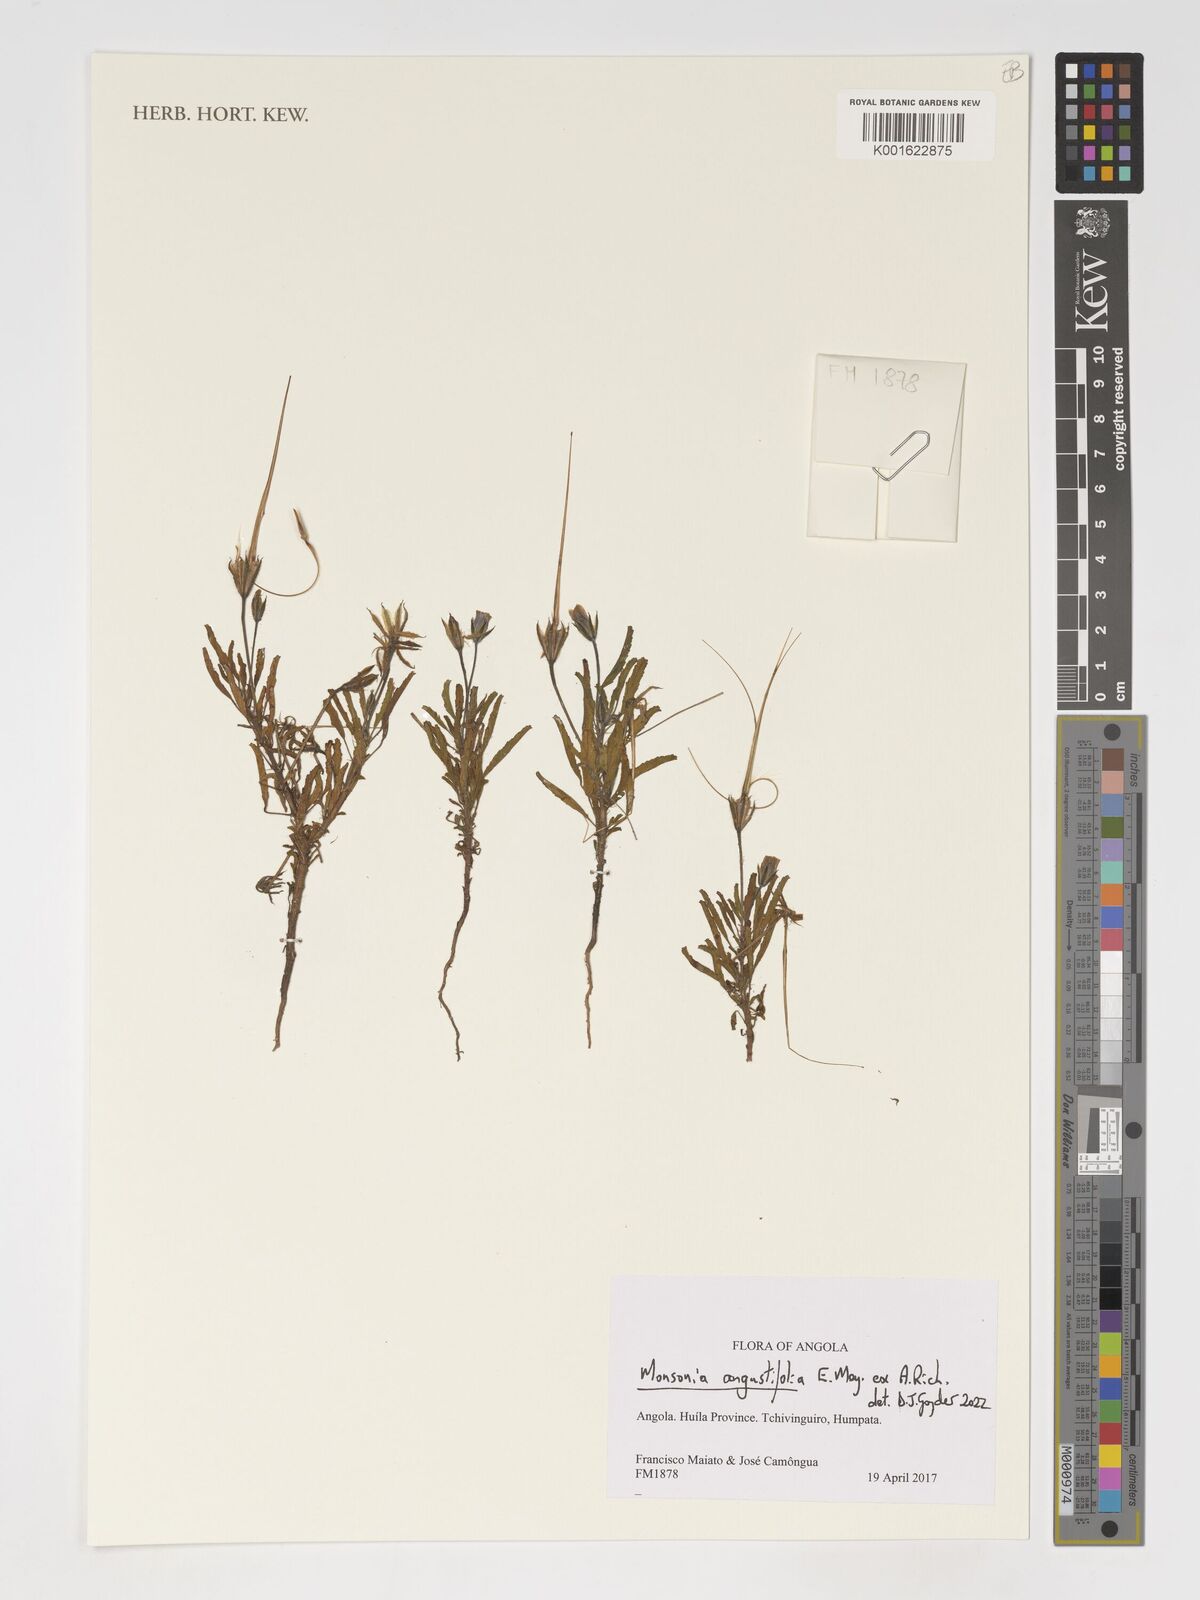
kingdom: Plantae
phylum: Tracheophyta
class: Magnoliopsida
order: Geraniales
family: Geraniaceae
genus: Monsonia
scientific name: Monsonia angustifolia
